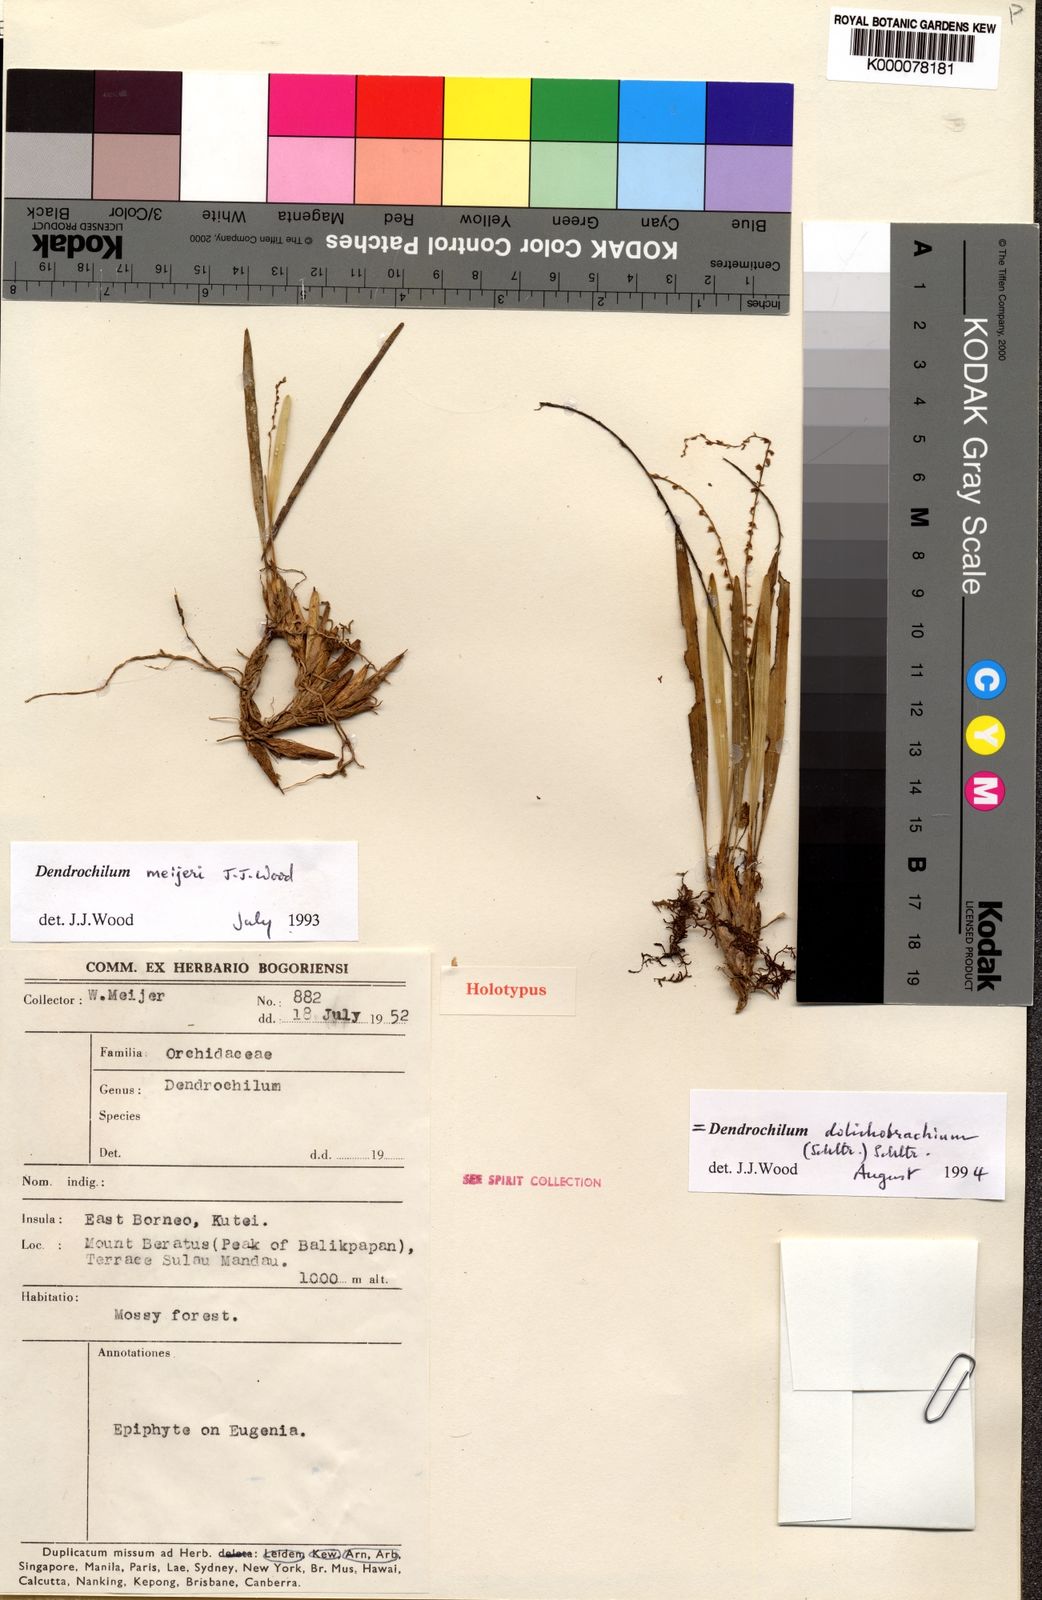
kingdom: Plantae
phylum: Tracheophyta
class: Liliopsida
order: Asparagales
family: Orchidaceae
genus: Coelogyne
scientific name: Coelogyne dolichobrachia
